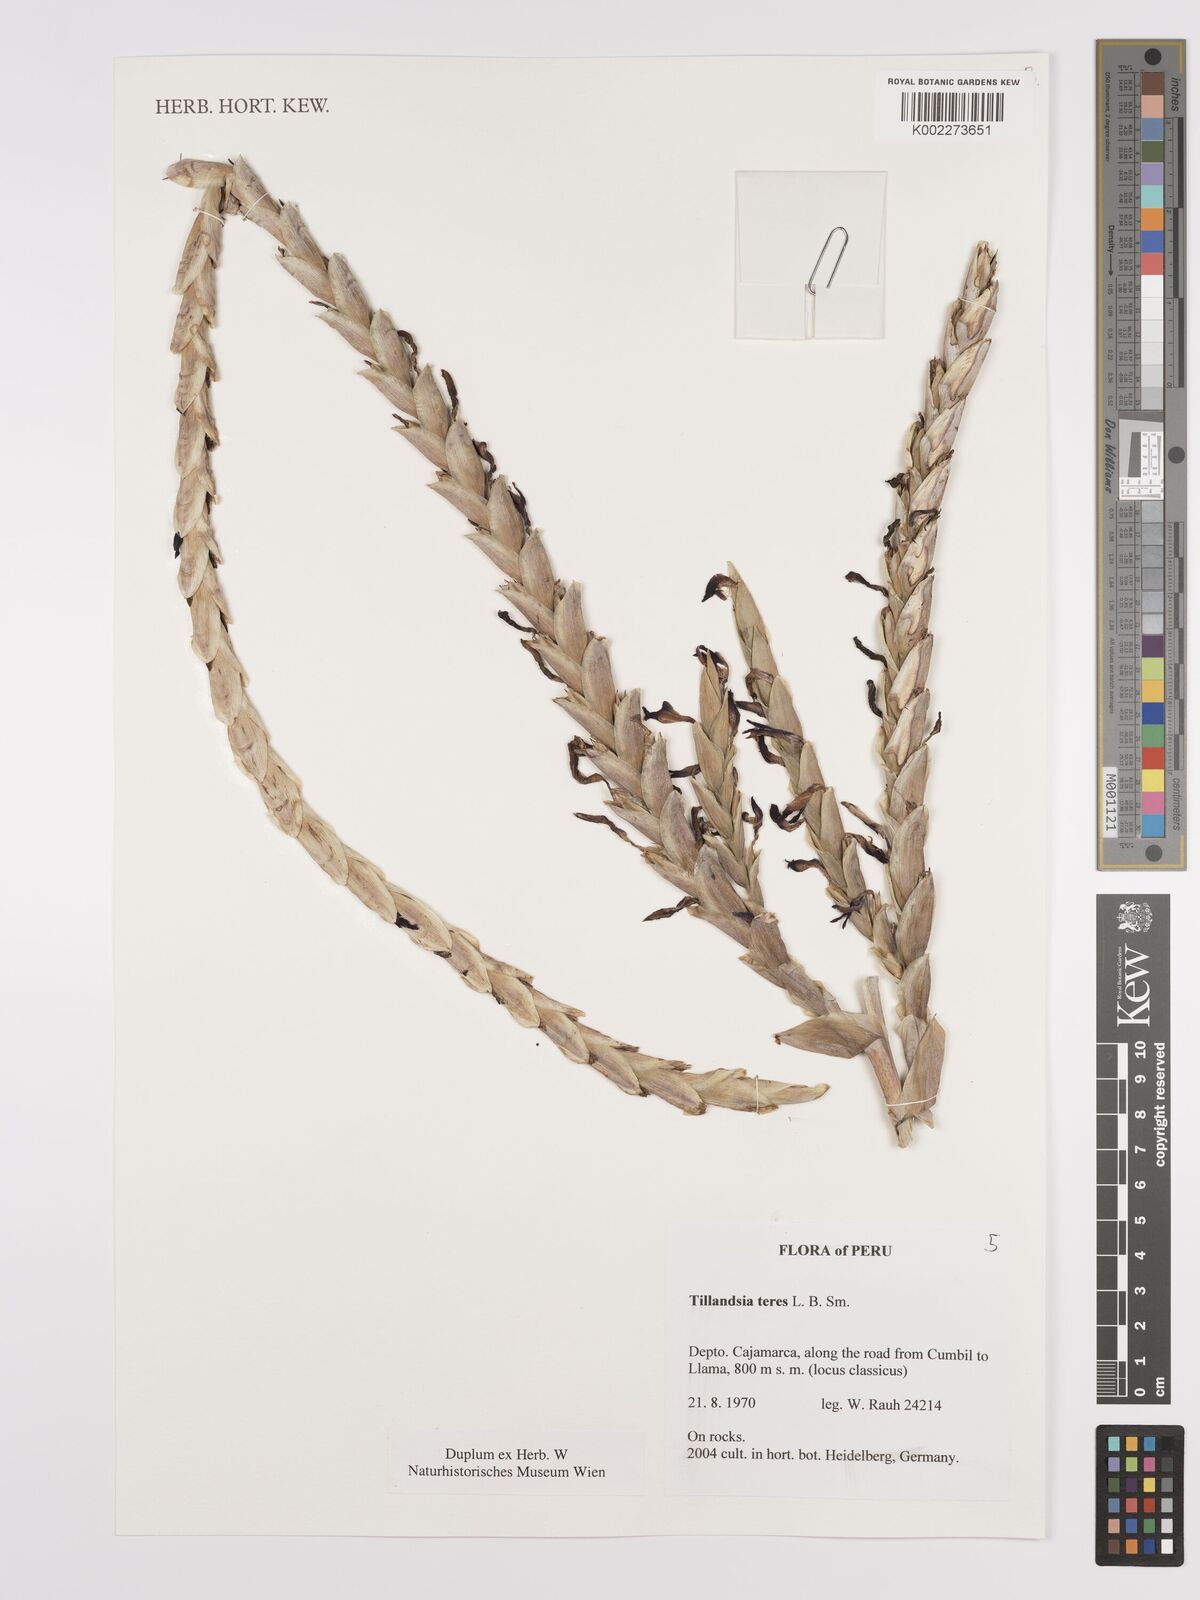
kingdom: Plantae
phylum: Tracheophyta
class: Liliopsida
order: Poales
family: Bromeliaceae
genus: Tillandsia
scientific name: Tillandsia teres
